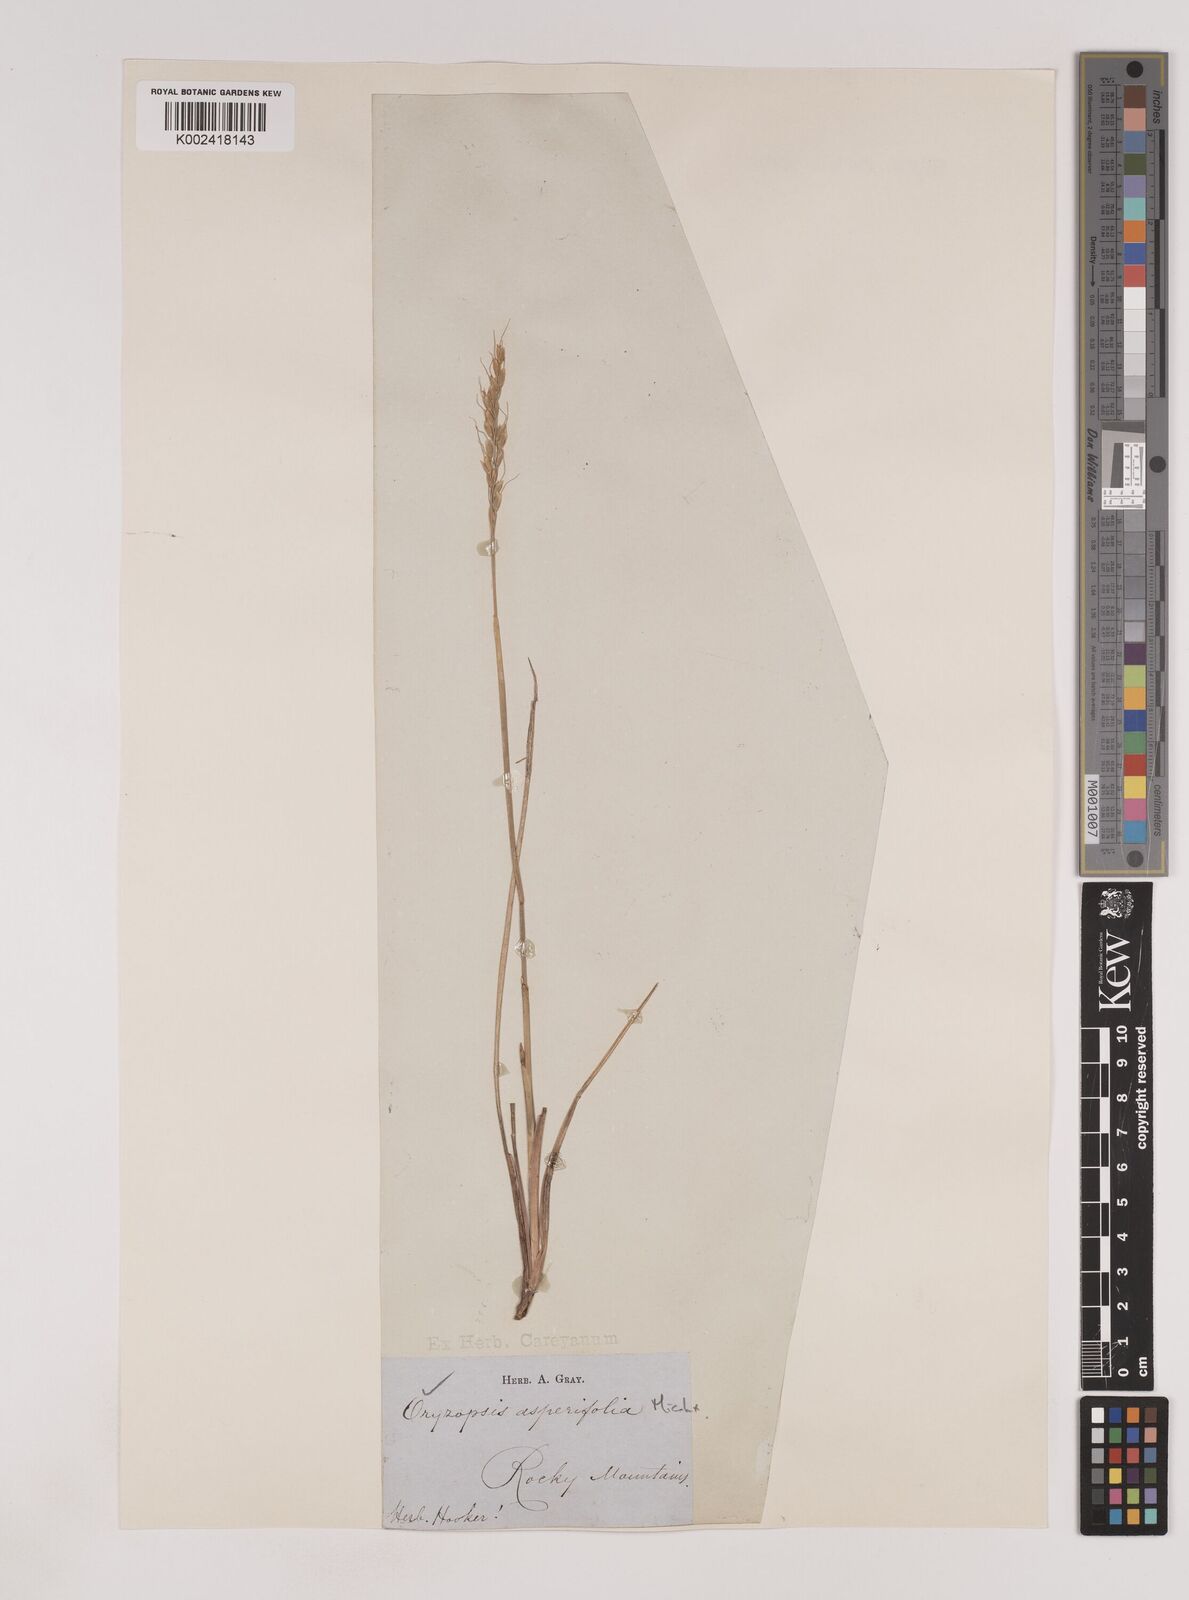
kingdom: Plantae
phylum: Tracheophyta
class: Liliopsida
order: Poales
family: Poaceae
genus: Oryzopsis
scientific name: Oryzopsis asperifolia
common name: Rough-leaved mountain rice
